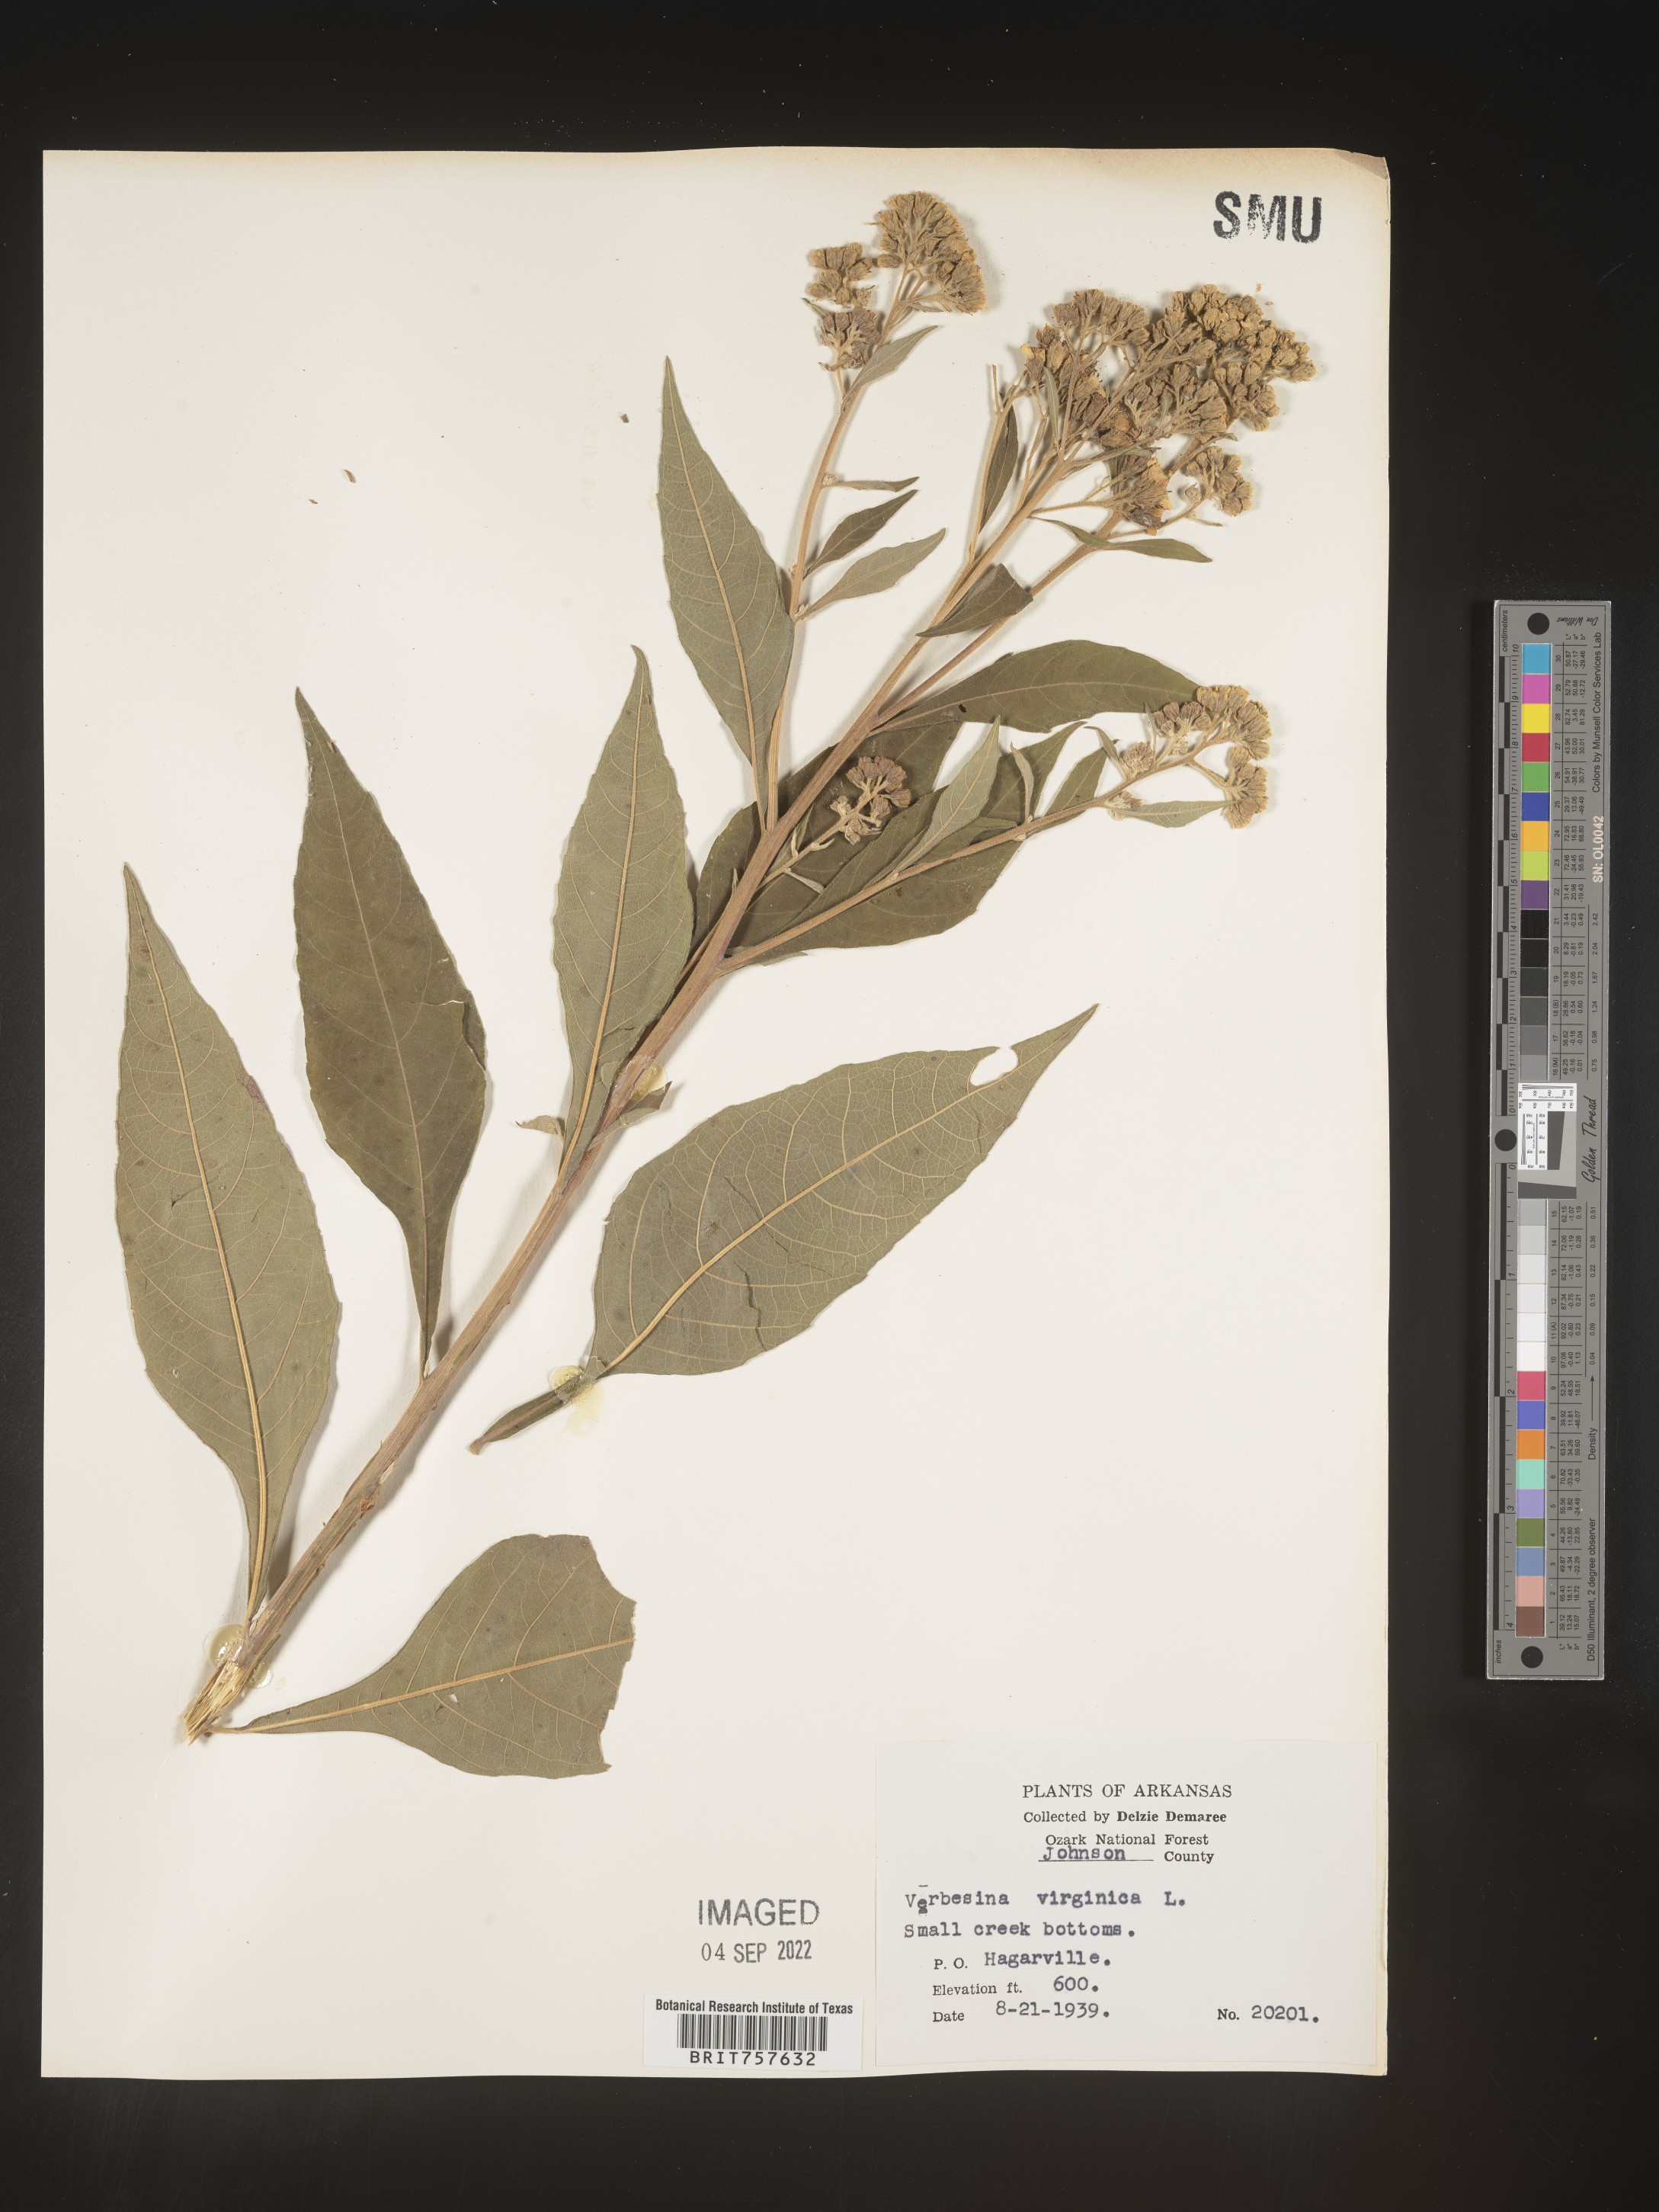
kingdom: Plantae
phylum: Tracheophyta
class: Magnoliopsida
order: Asterales
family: Asteraceae
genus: Verbesina
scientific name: Verbesina virginica
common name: Frostweed
